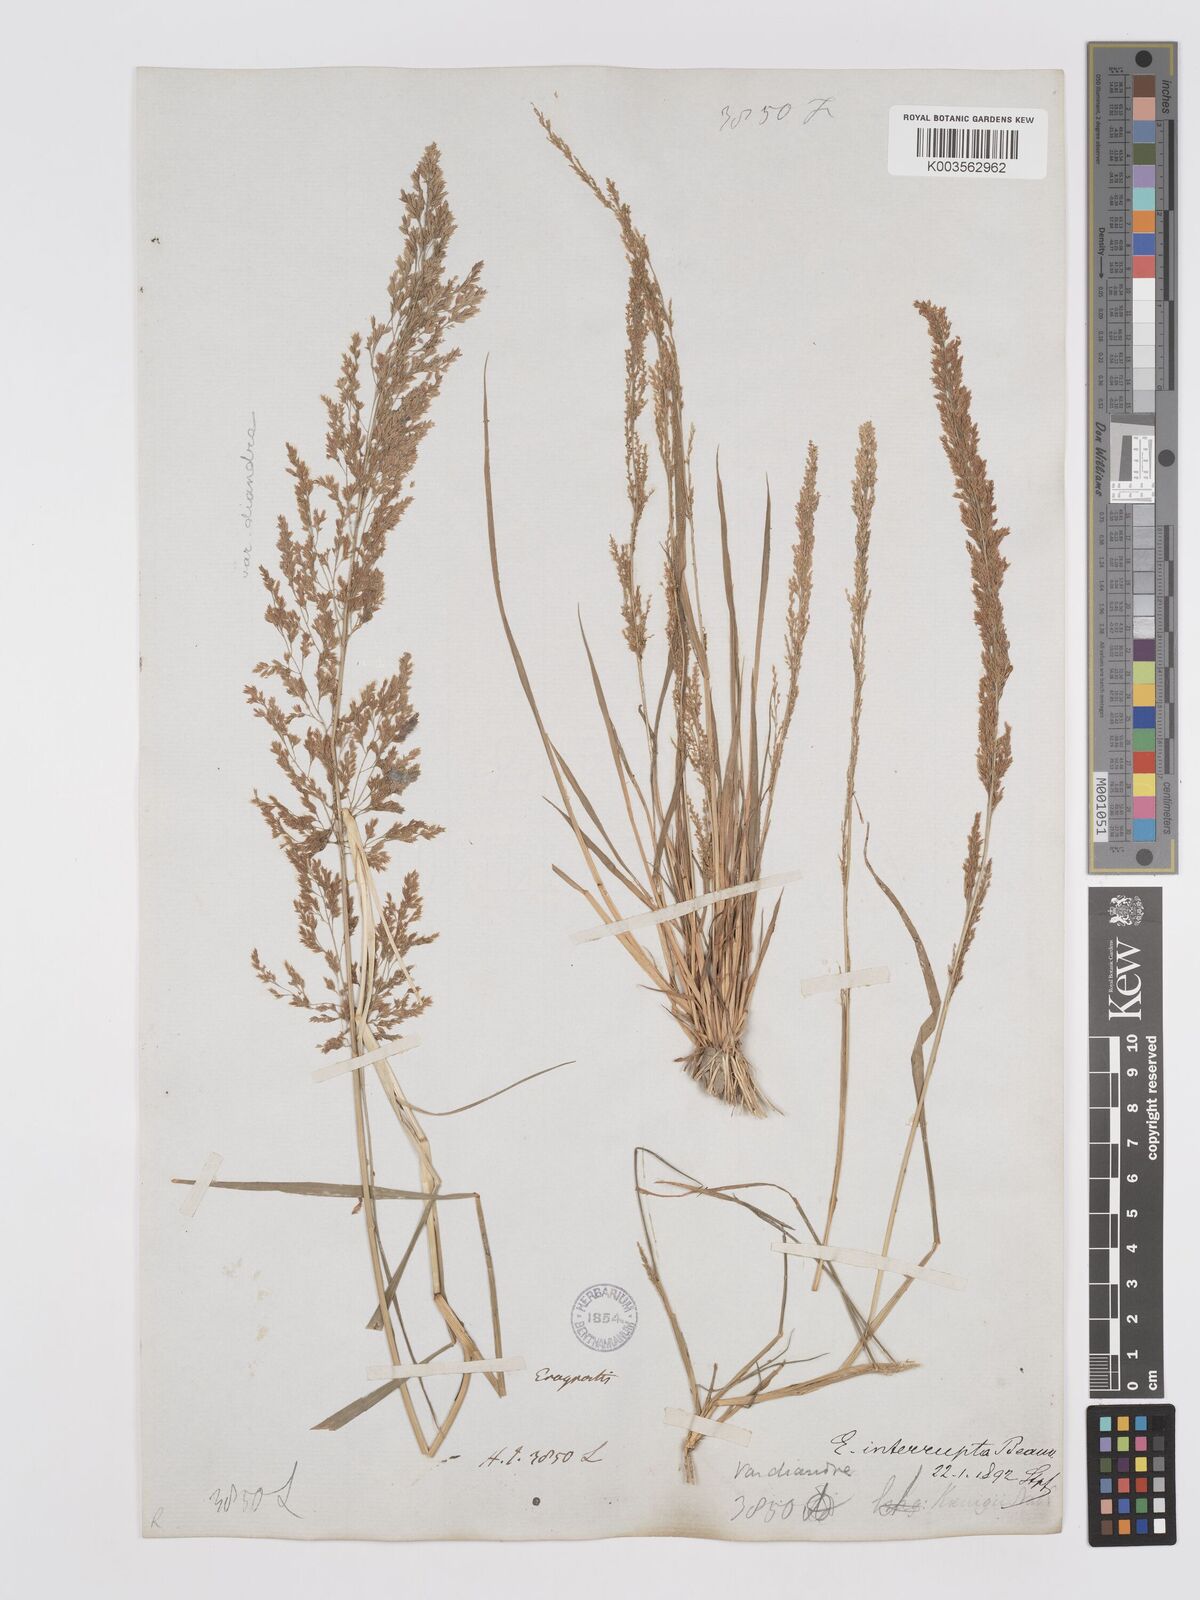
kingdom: Plantae
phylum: Tracheophyta
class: Liliopsida
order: Poales
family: Poaceae
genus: Eragrostis
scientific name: Eragrostis japonica
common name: Pond lovegrass
